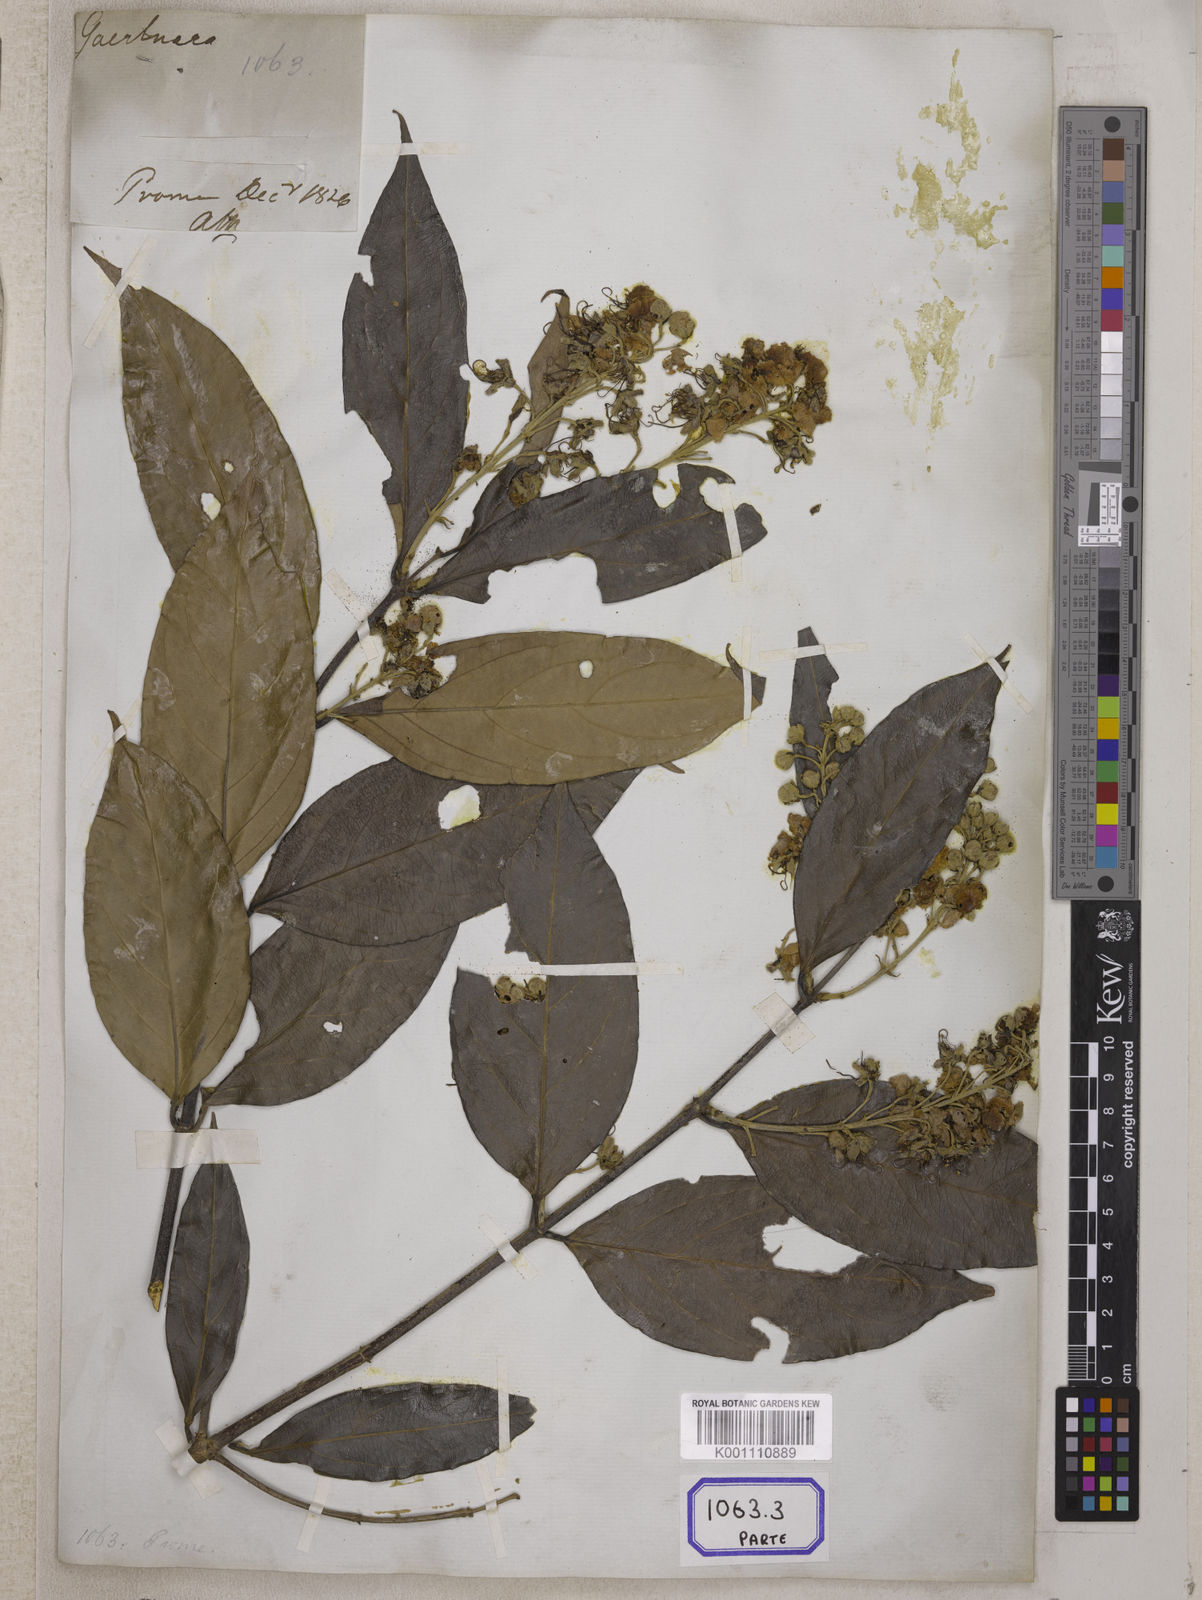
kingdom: Plantae
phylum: Tracheophyta
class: Magnoliopsida
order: Malpighiales
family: Malpighiaceae
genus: Hiptage
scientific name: Hiptage benghalensis
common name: Hiptage
